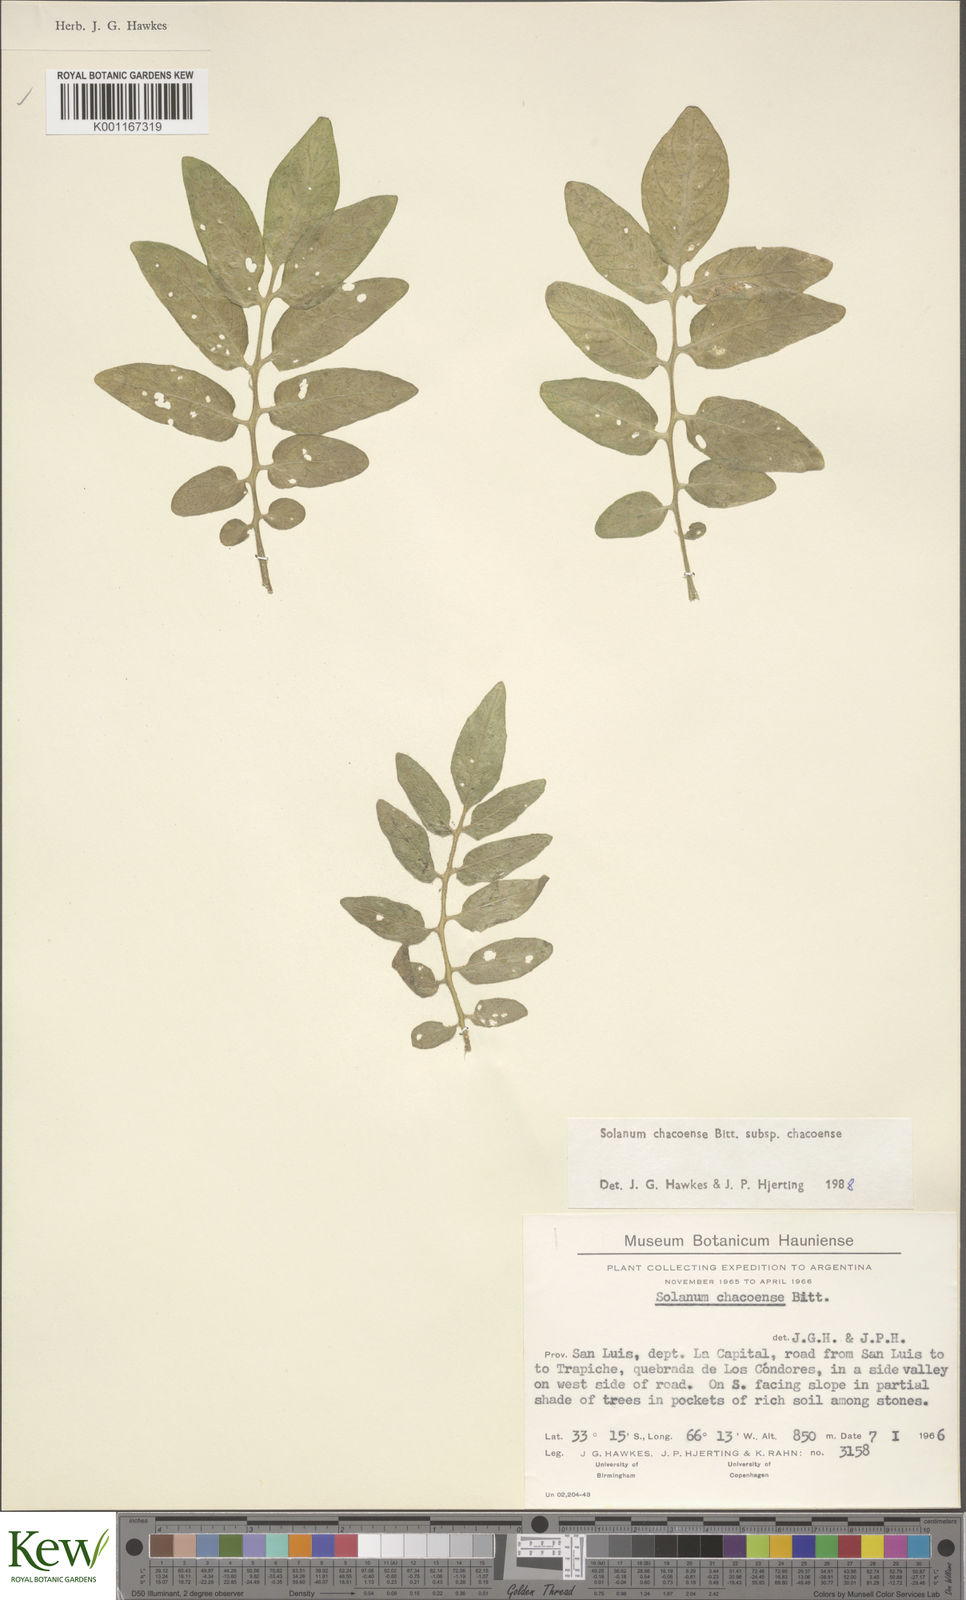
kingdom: Plantae
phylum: Tracheophyta
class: Magnoliopsida
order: Solanales
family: Solanaceae
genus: Solanum
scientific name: Solanum chacoense
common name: Chaco potato
